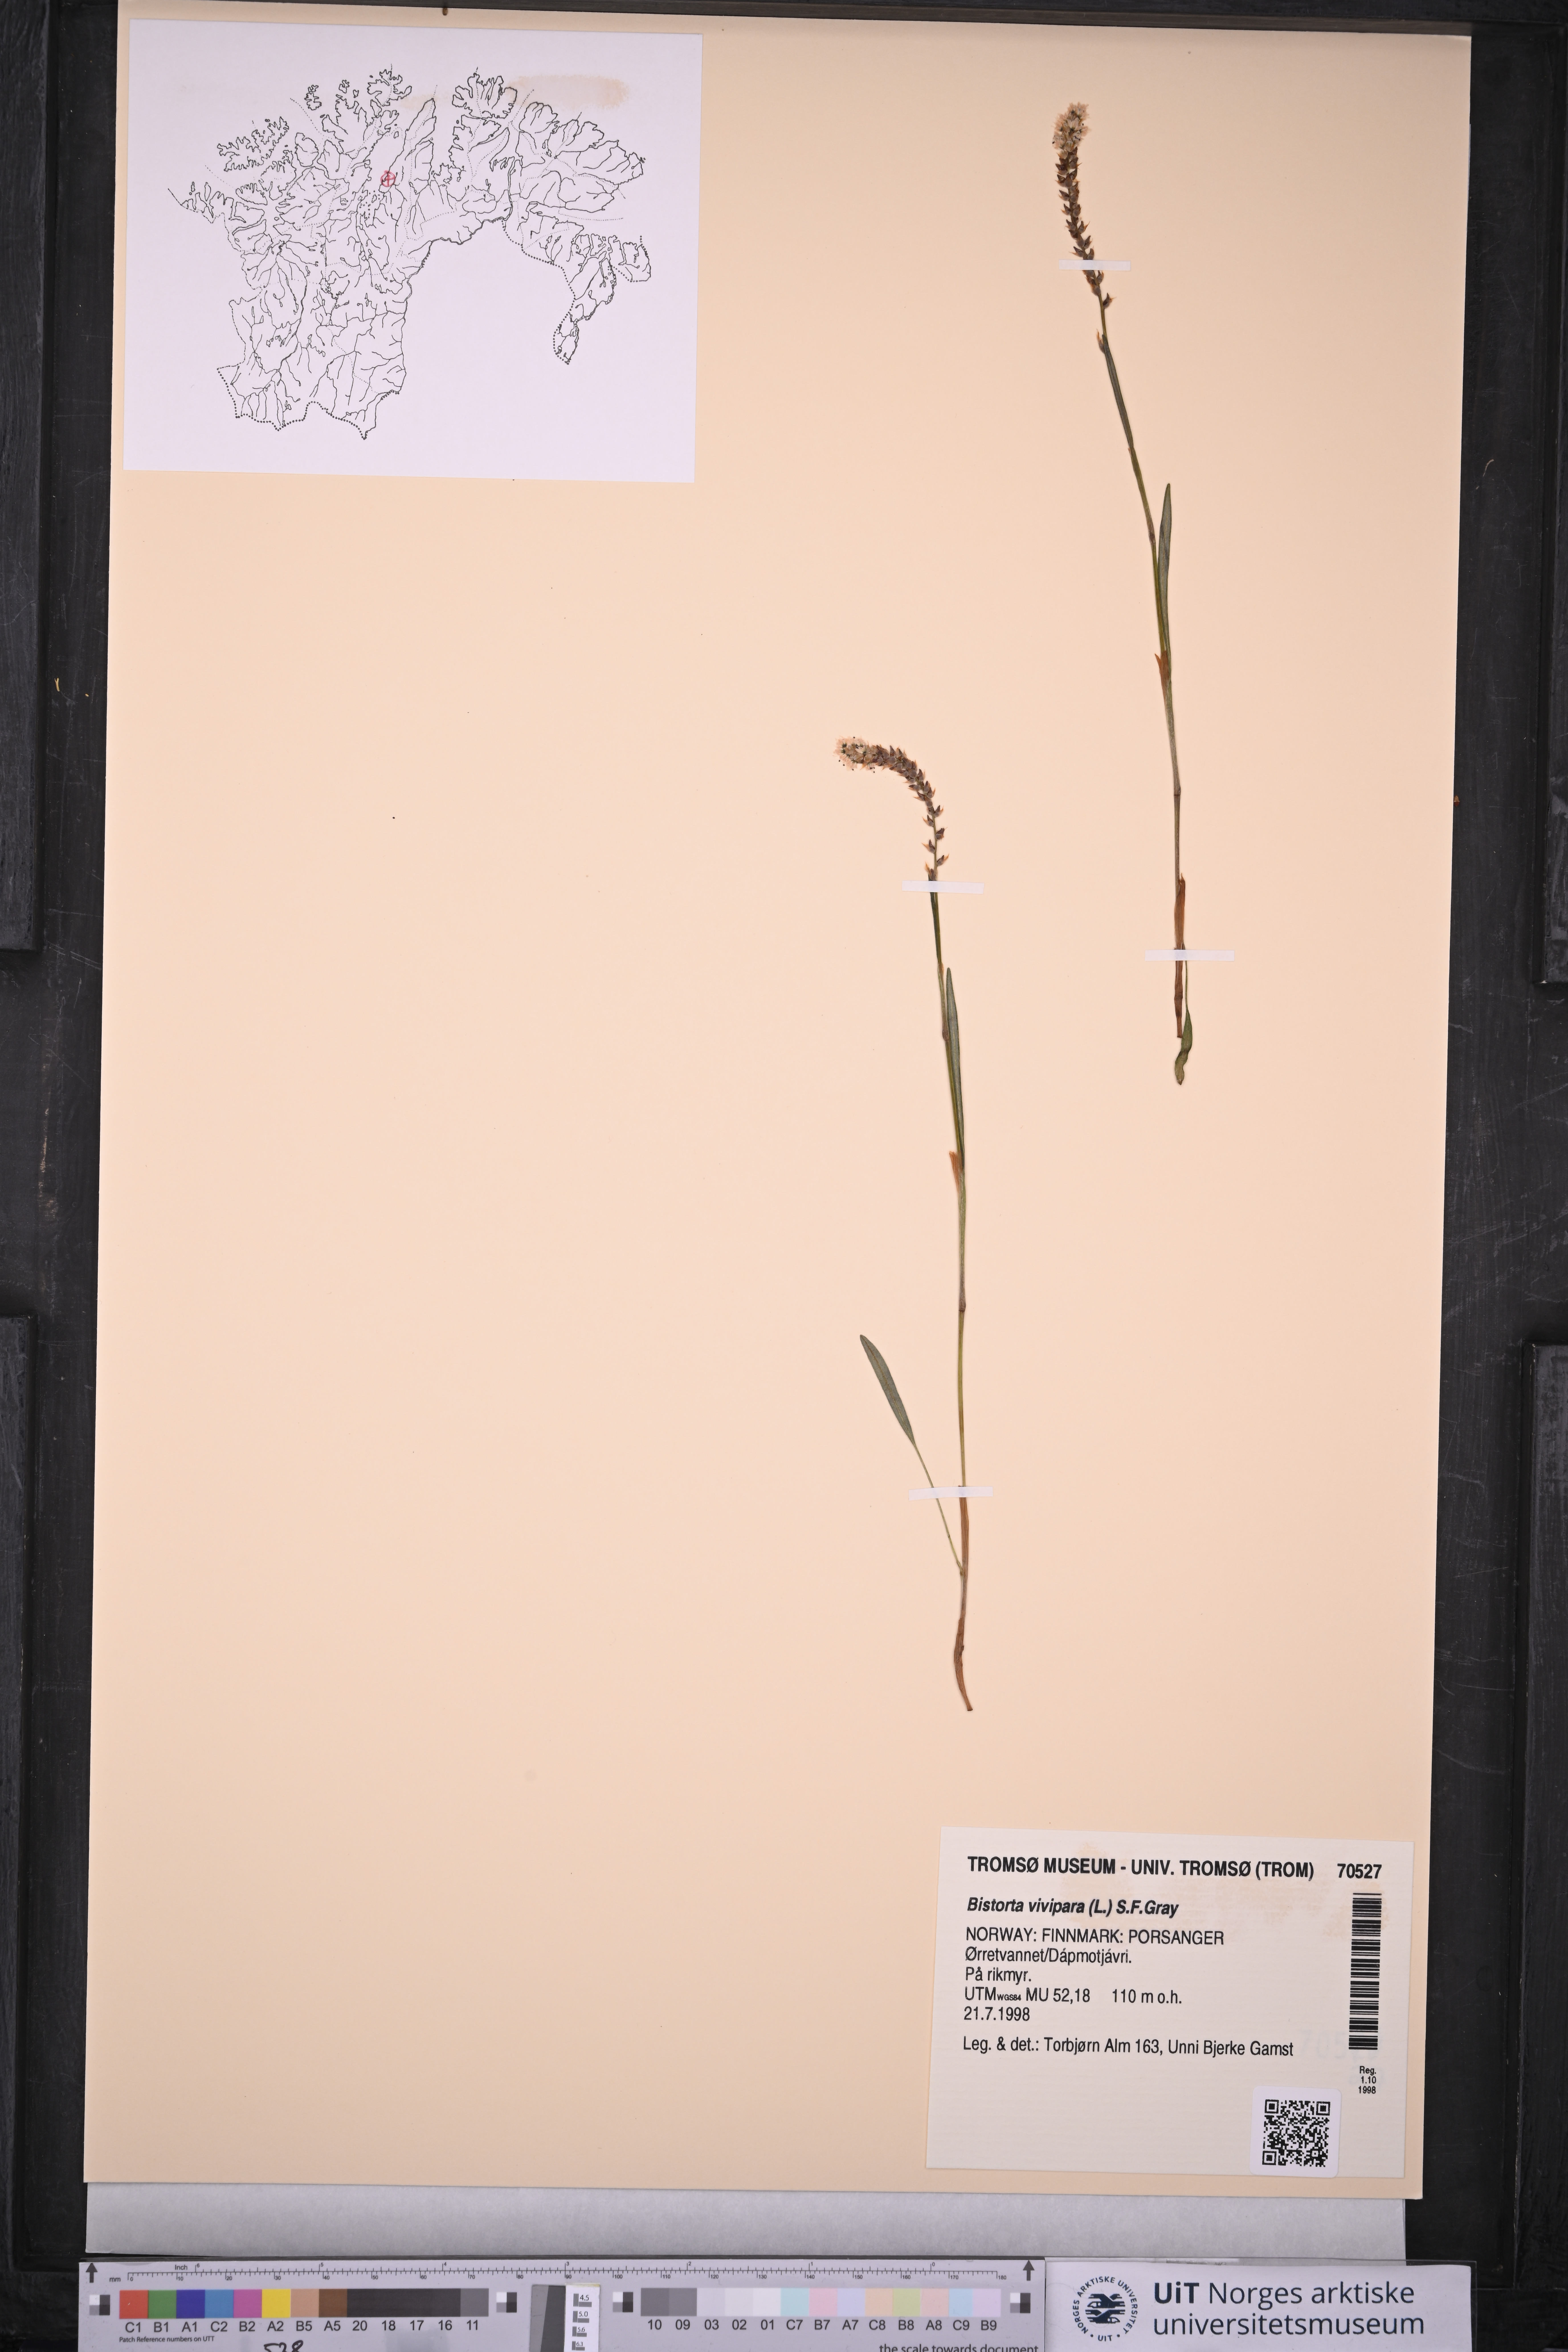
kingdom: Plantae
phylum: Tracheophyta
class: Magnoliopsida
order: Caryophyllales
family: Polygonaceae
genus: Bistorta
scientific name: Bistorta vivipara
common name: Alpine bistort
